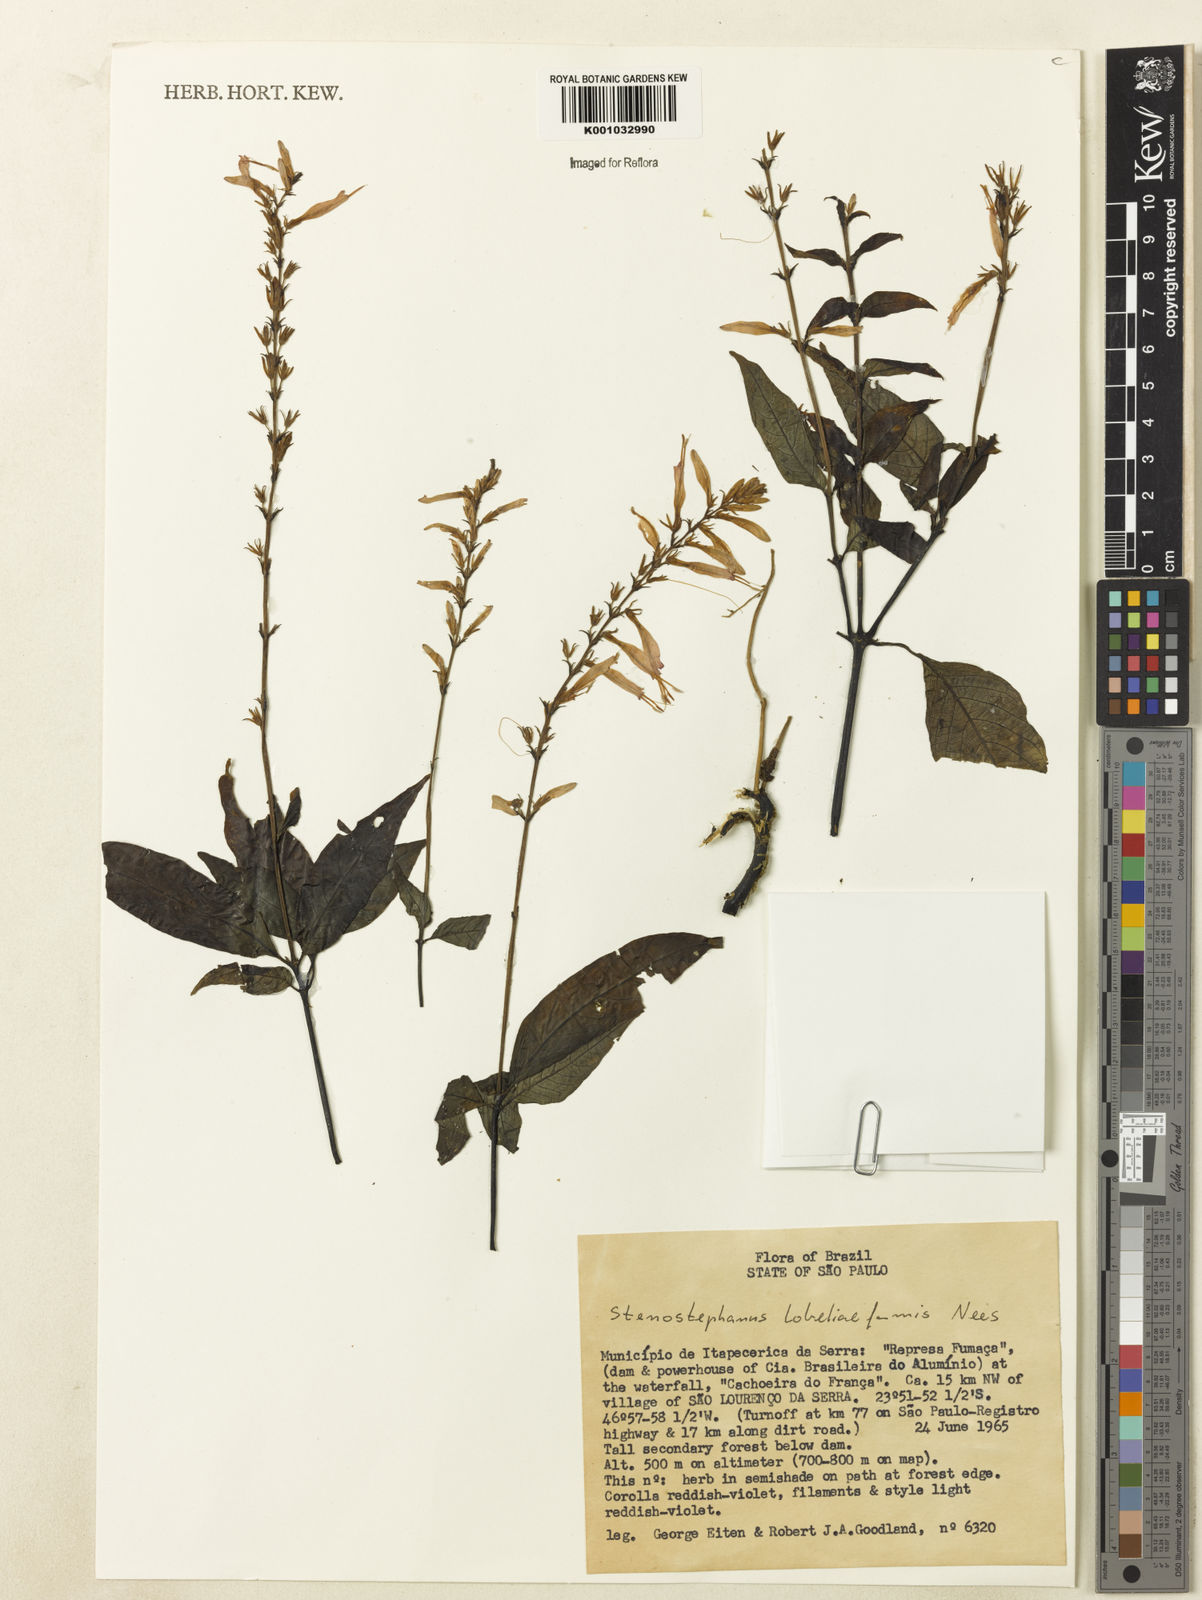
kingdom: Plantae
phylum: Tracheophyta
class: Magnoliopsida
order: Lamiales
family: Acanthaceae
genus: Stenostephanus
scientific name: Stenostephanus lobeliiformis
